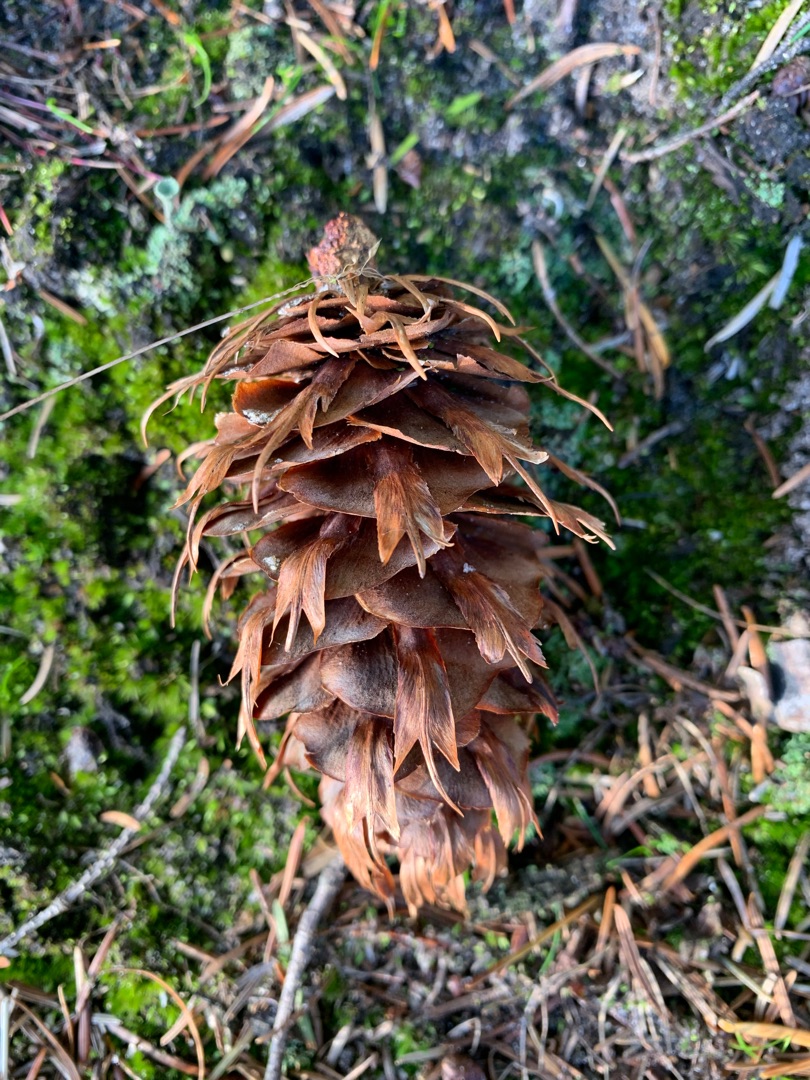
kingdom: Plantae
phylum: Tracheophyta
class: Pinopsida
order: Pinales
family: Pinaceae
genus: Pseudotsuga
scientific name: Pseudotsuga menziesii
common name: Douglasgran
